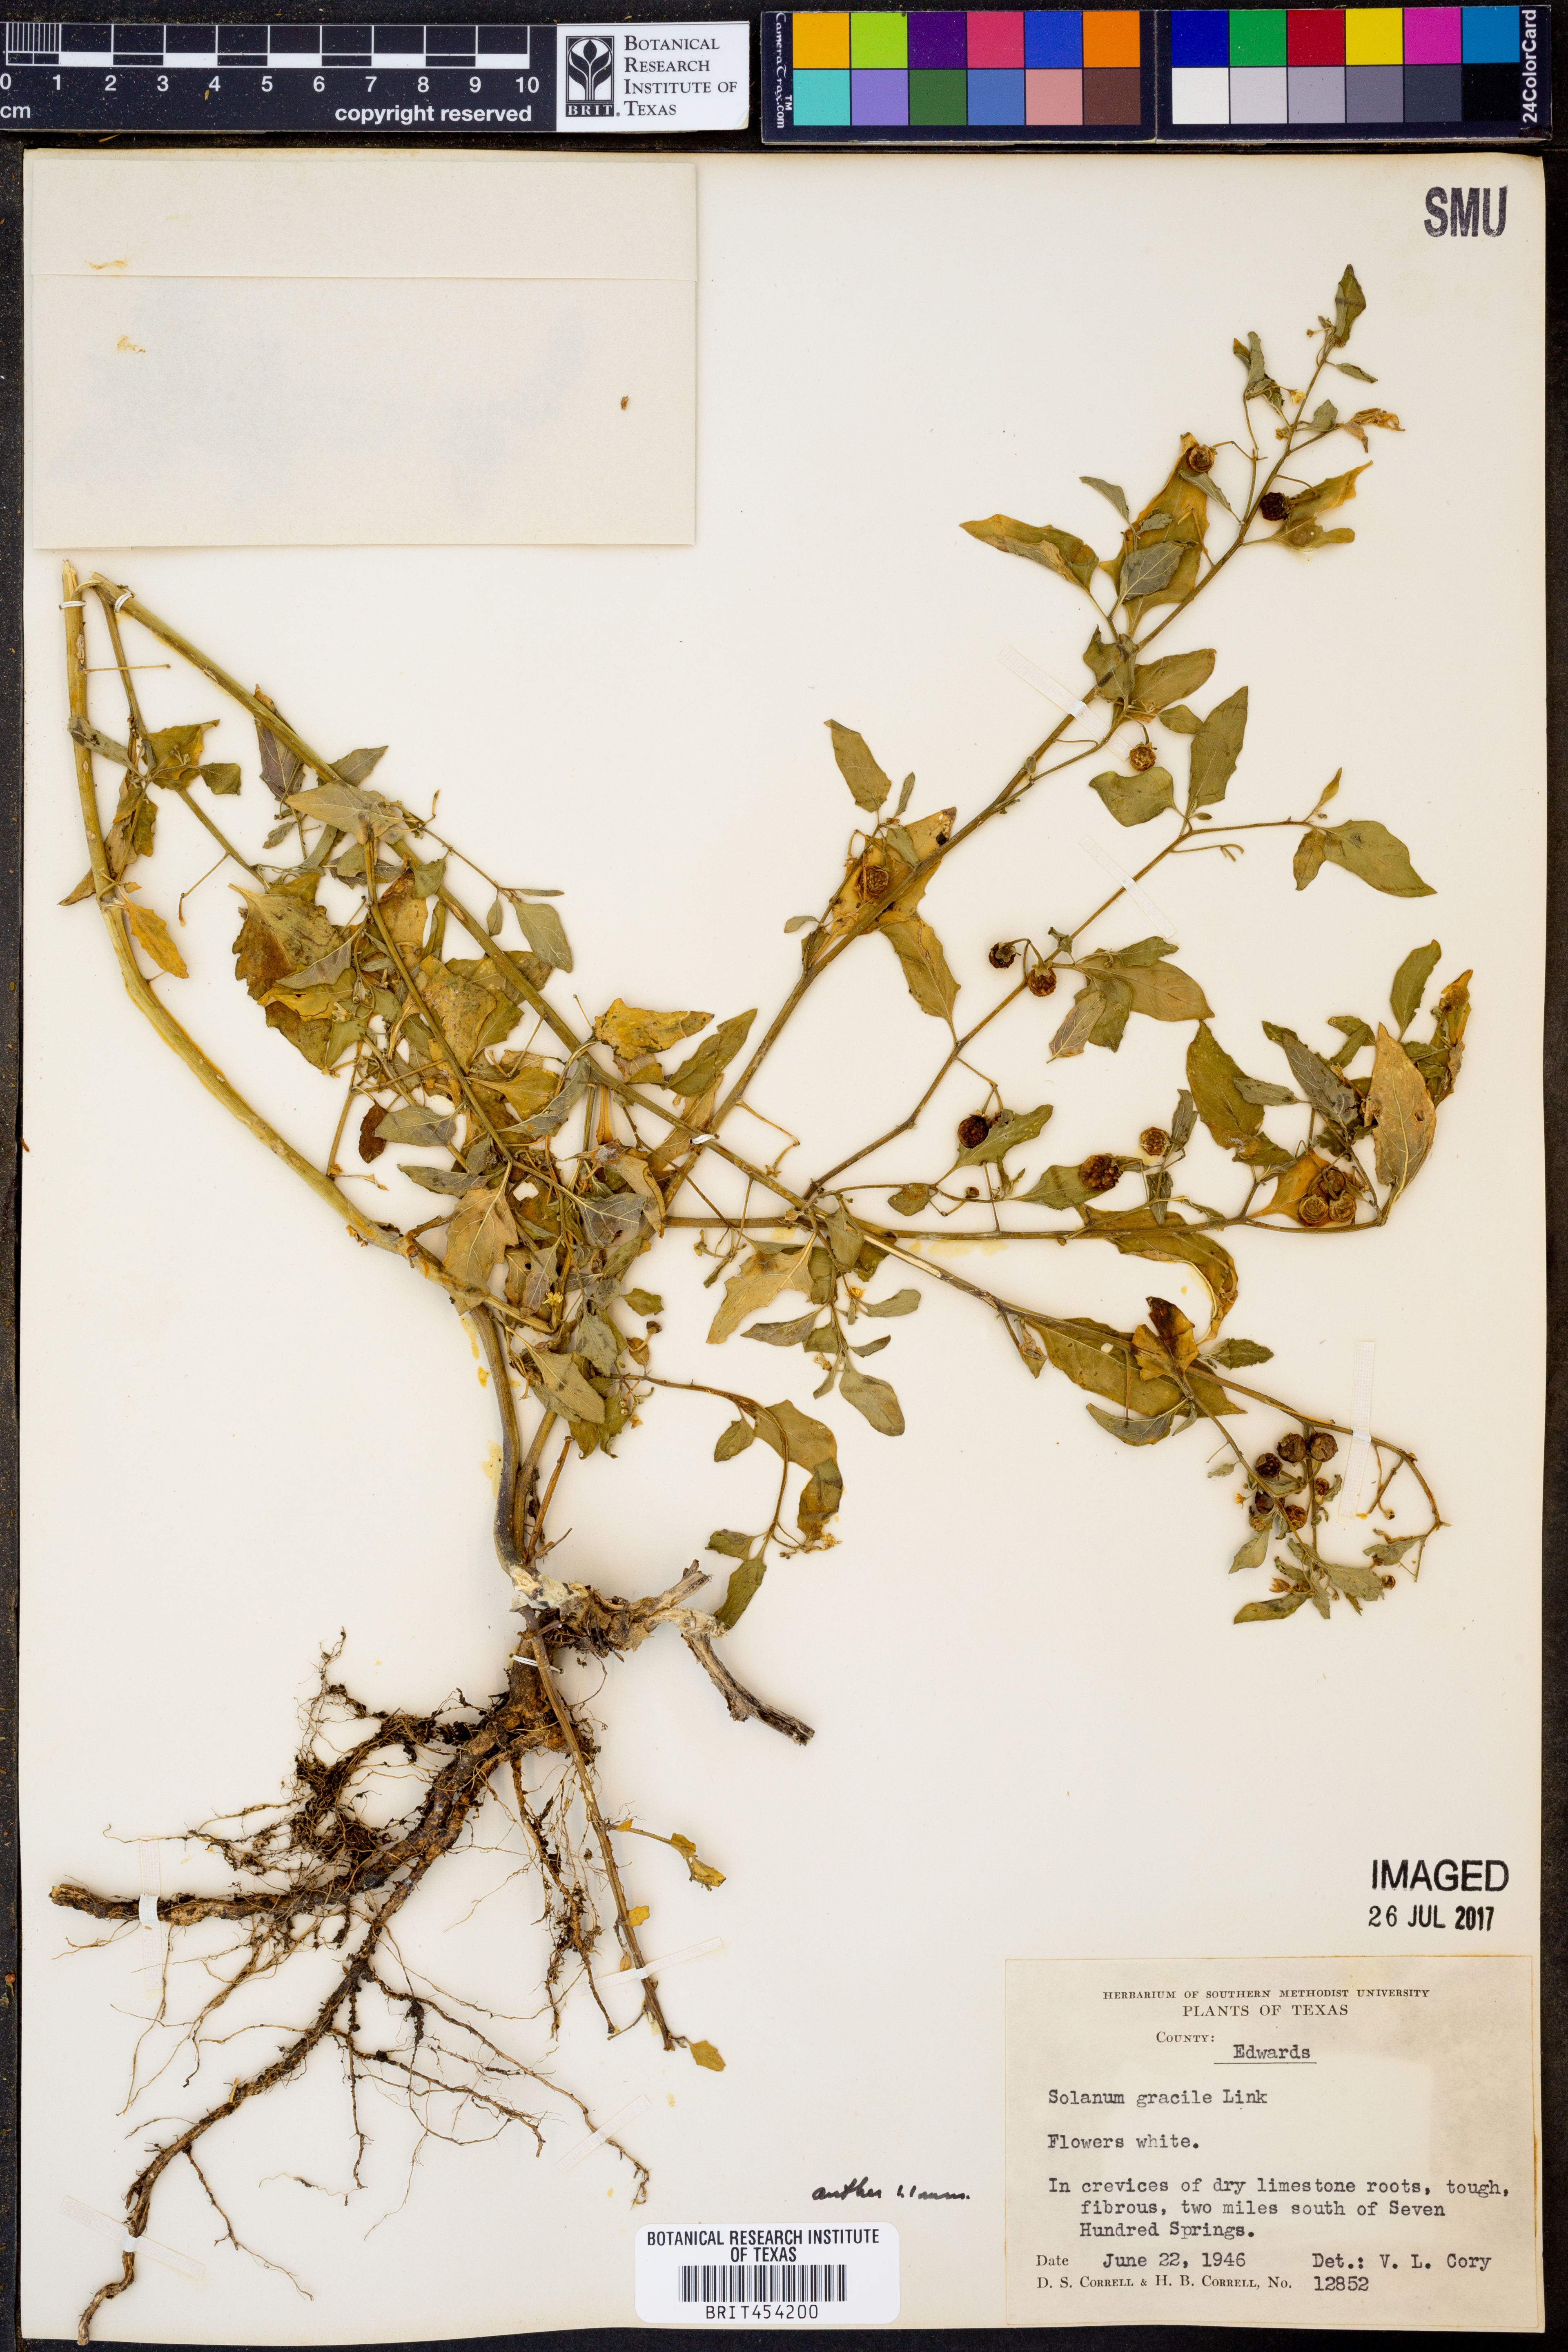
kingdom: Plantae
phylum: Tracheophyta
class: Magnoliopsida
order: Solanales
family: Solanaceae
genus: Solanum
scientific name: Solanum suaveolens
